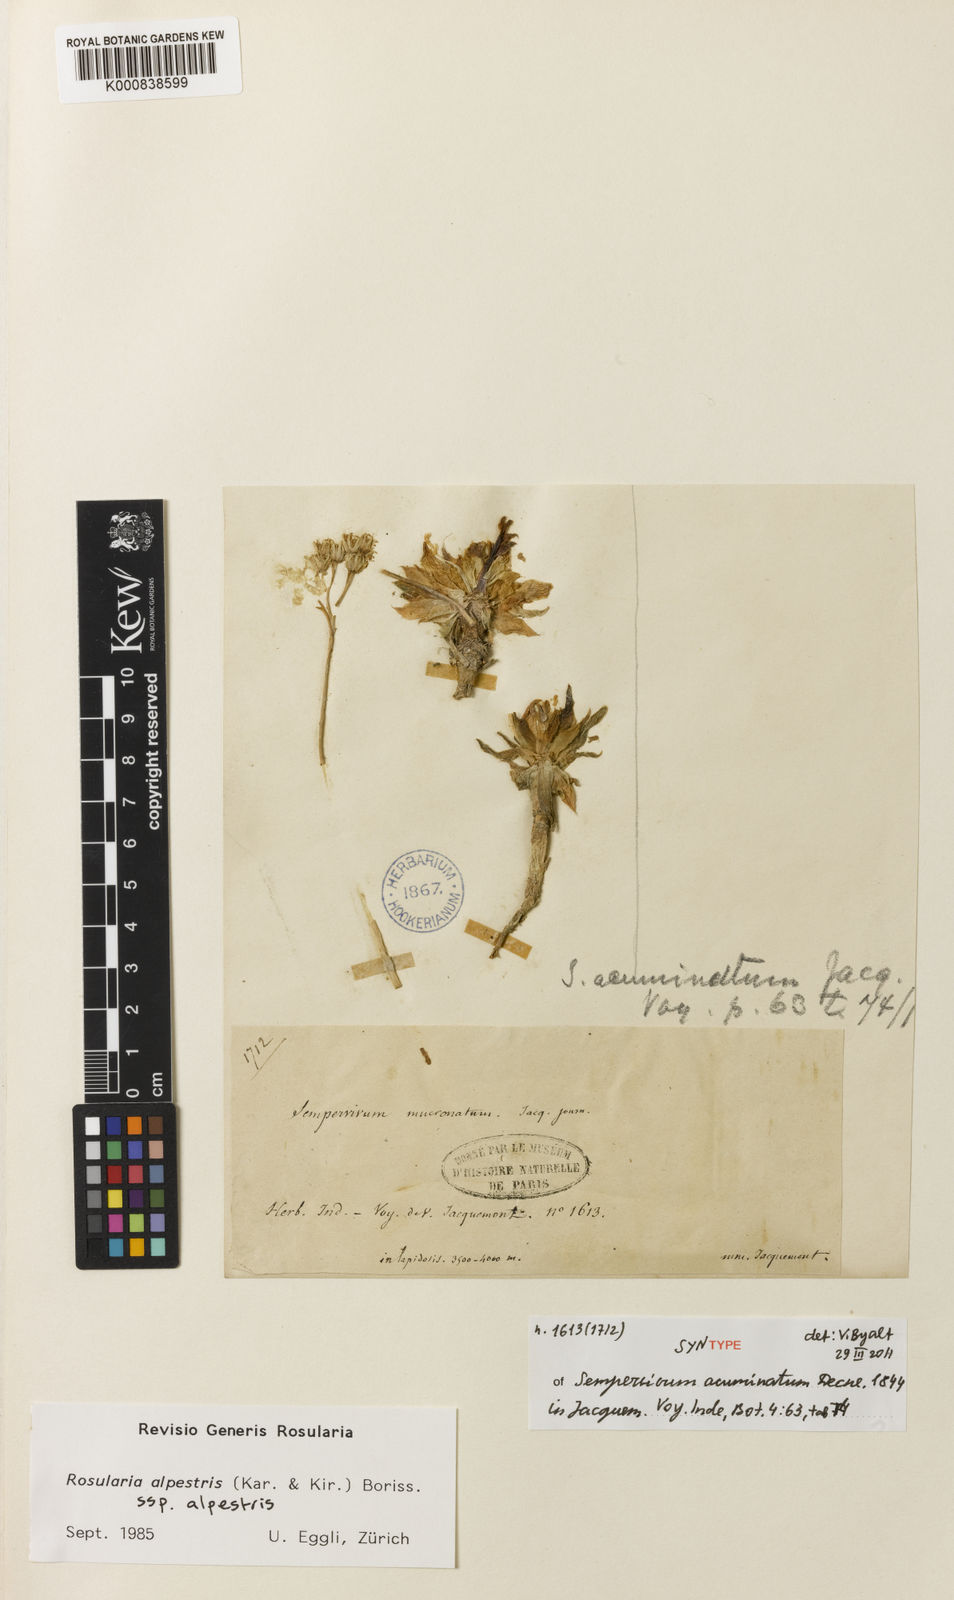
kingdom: Plantae
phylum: Tracheophyta
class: Magnoliopsida
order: Saxifragales
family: Crassulaceae
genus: Rosularia
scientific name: Rosularia alpestris
